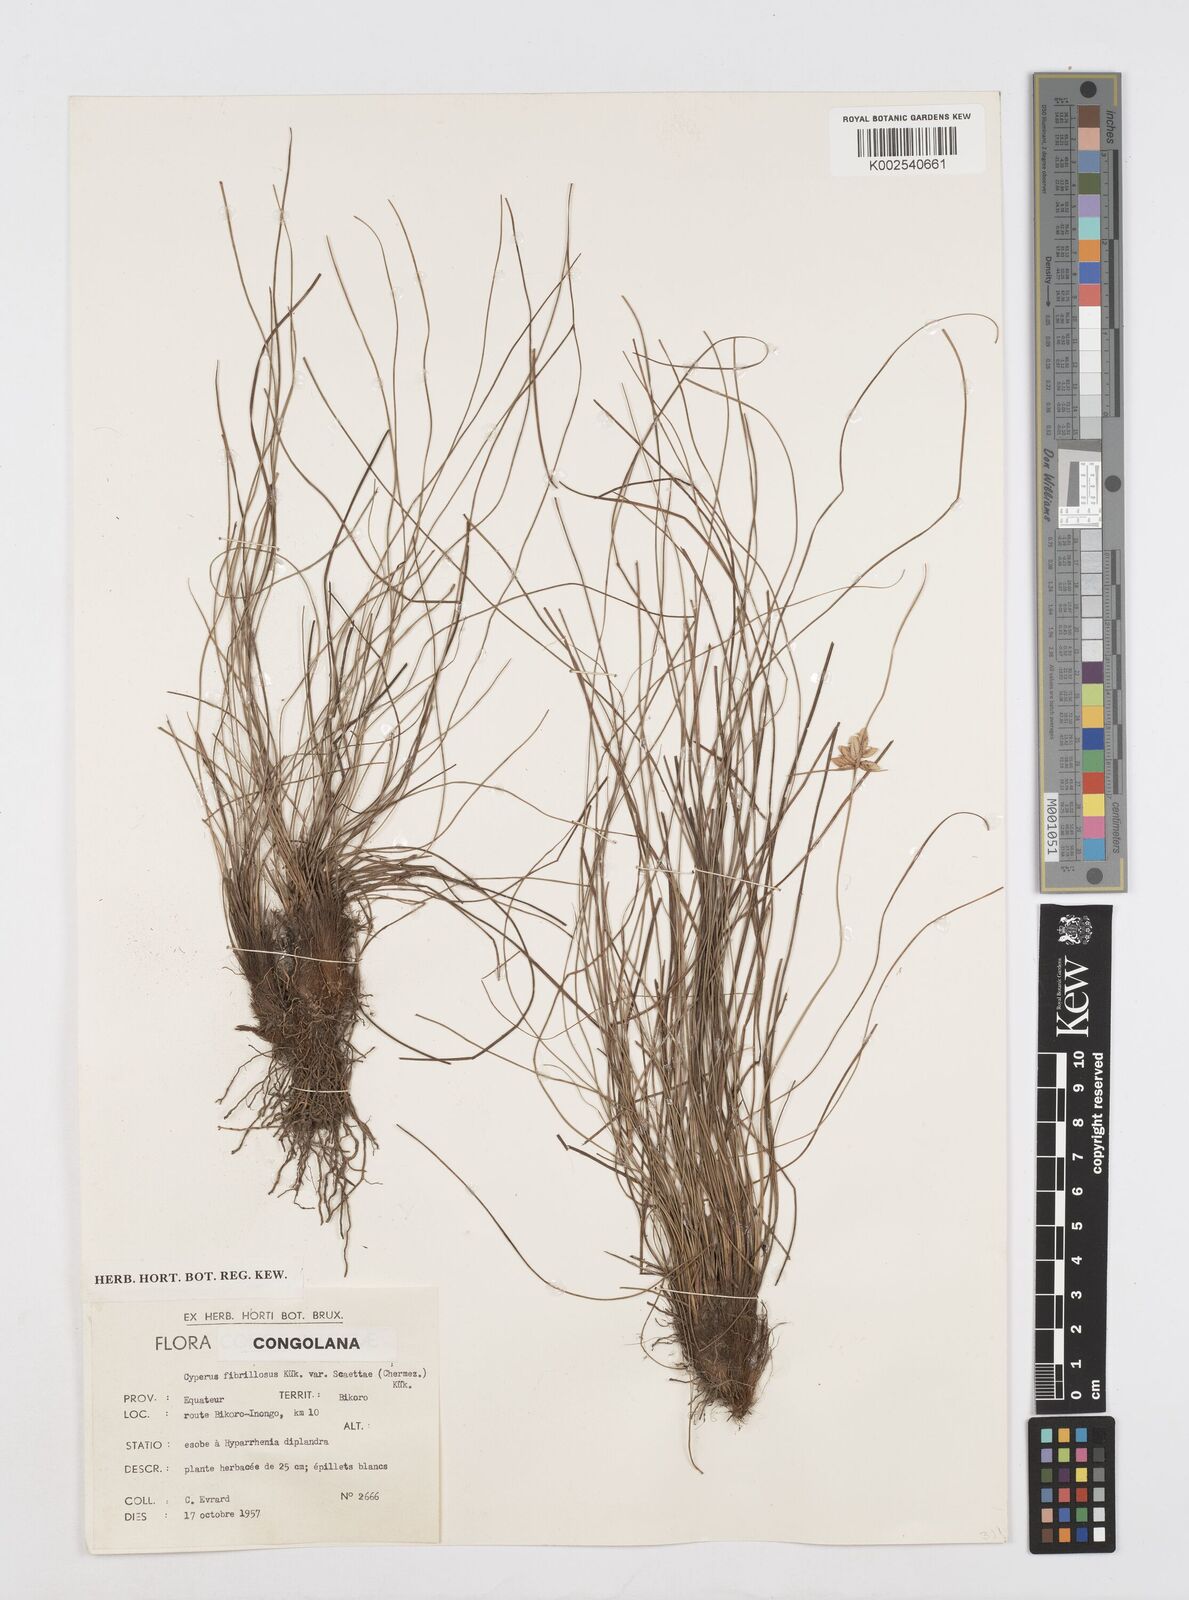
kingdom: Plantae
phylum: Tracheophyta
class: Liliopsida
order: Poales
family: Cyperaceae
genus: Cyperus
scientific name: Cyperus scaettae
